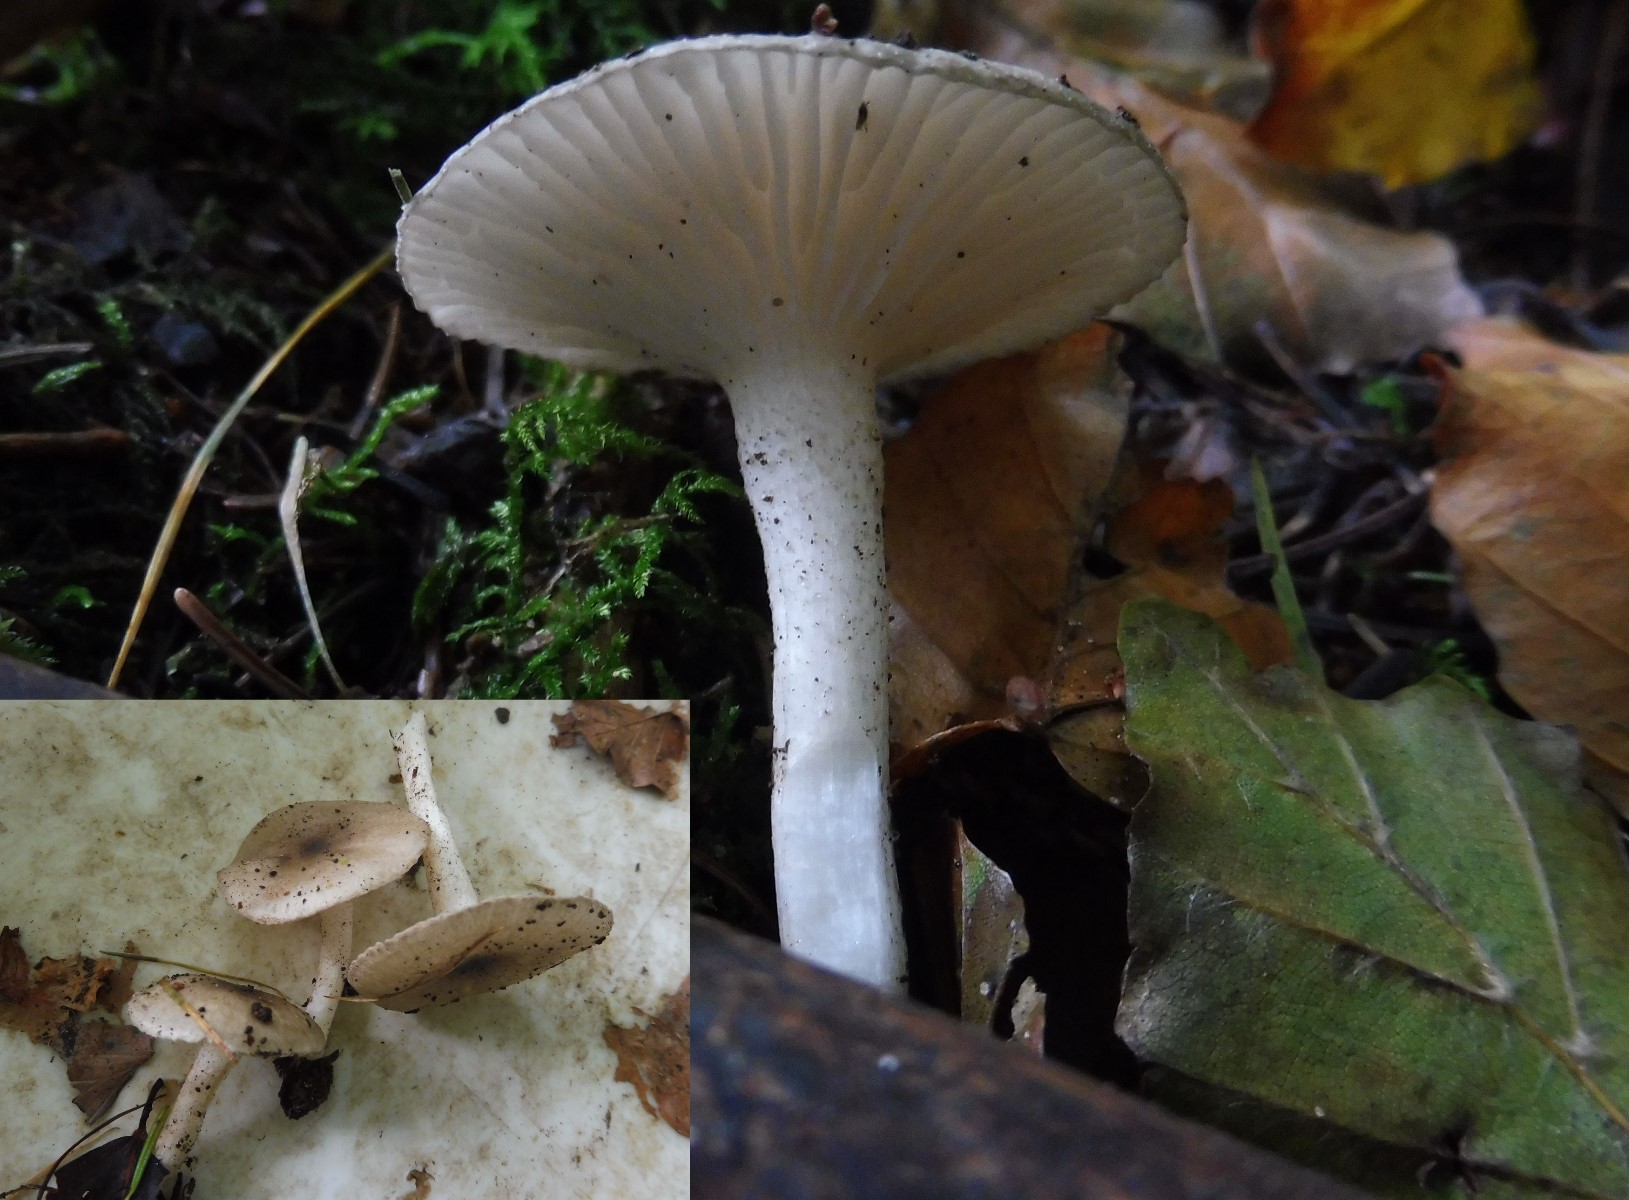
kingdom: Fungi
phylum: Basidiomycota
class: Agaricomycetes
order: Agaricales
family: Hygrophoraceae
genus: Hygrophorus
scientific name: Hygrophorus pustulatus
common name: mørkprikket sneglehat
